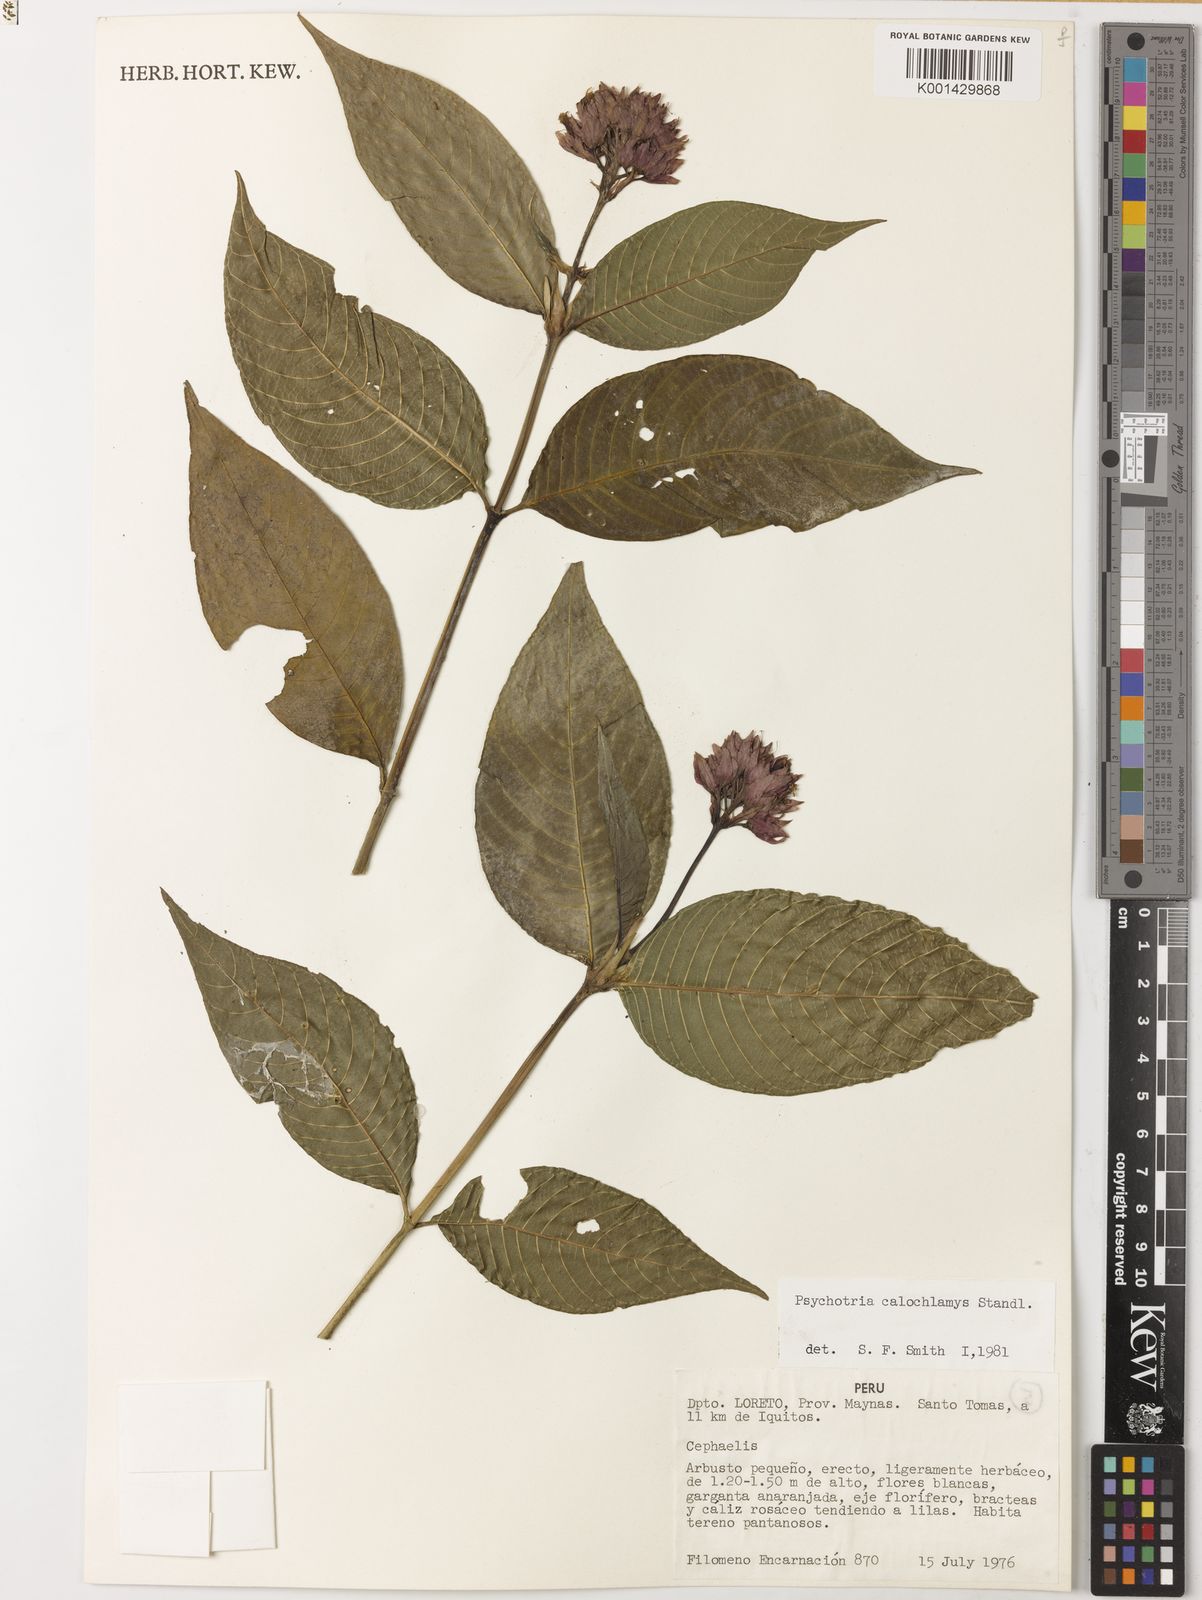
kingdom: Plantae
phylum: Tracheophyta
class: Magnoliopsida
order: Gentianales
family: Rubiaceae
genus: Palicourea
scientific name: Palicourea stipulosa
